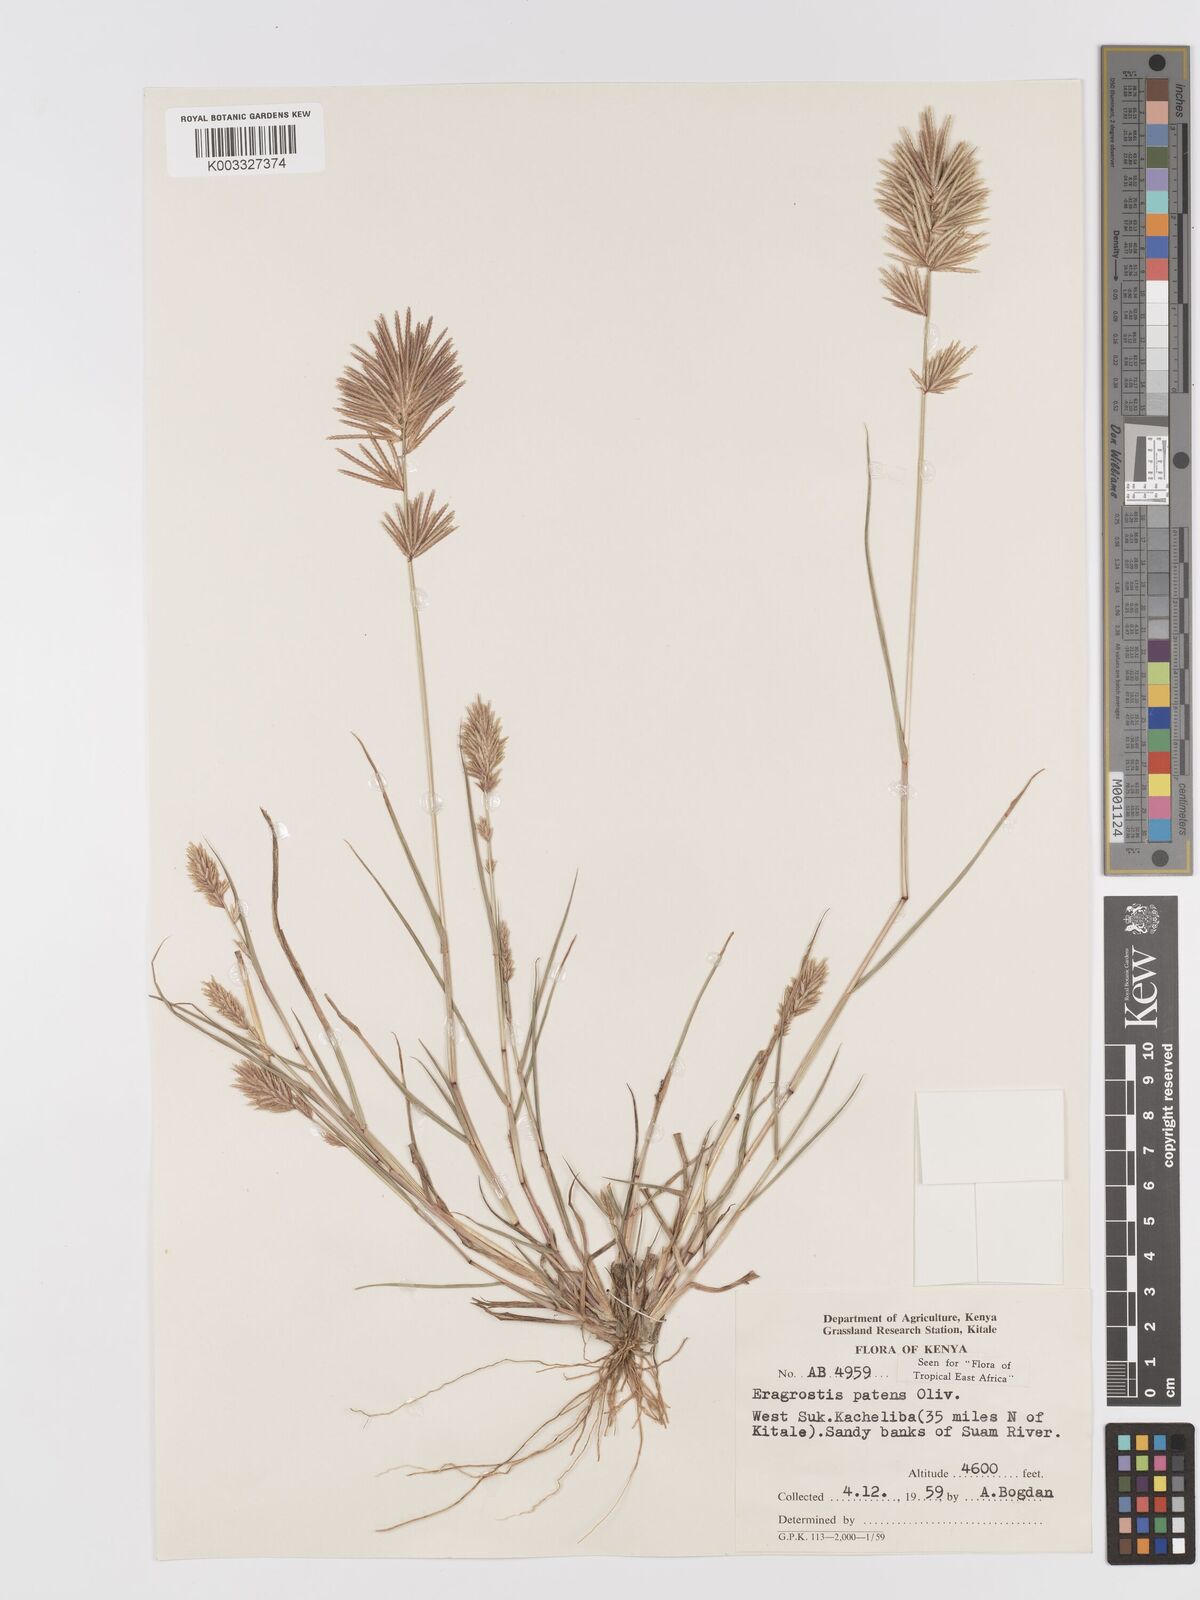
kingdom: Plantae
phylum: Tracheophyta
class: Liliopsida
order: Poales
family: Poaceae
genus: Eragrostis
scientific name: Eragrostis patens
